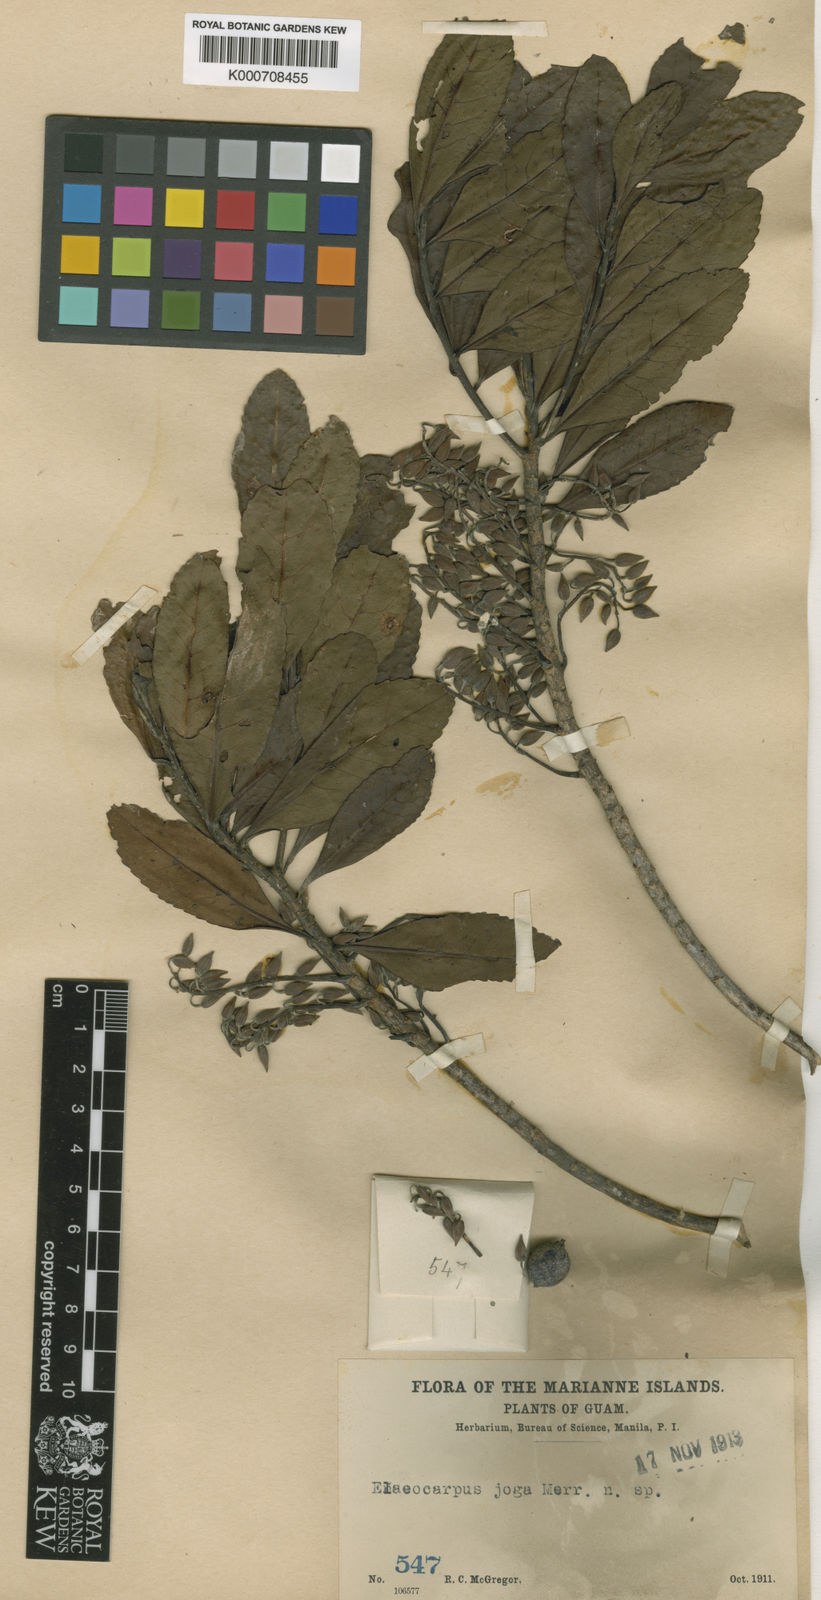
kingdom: Plantae
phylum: Tracheophyta
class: Magnoliopsida
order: Oxalidales
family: Elaeocarpaceae
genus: Elaeocarpus
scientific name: Elaeocarpus angustifolius
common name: Blue marble tree
